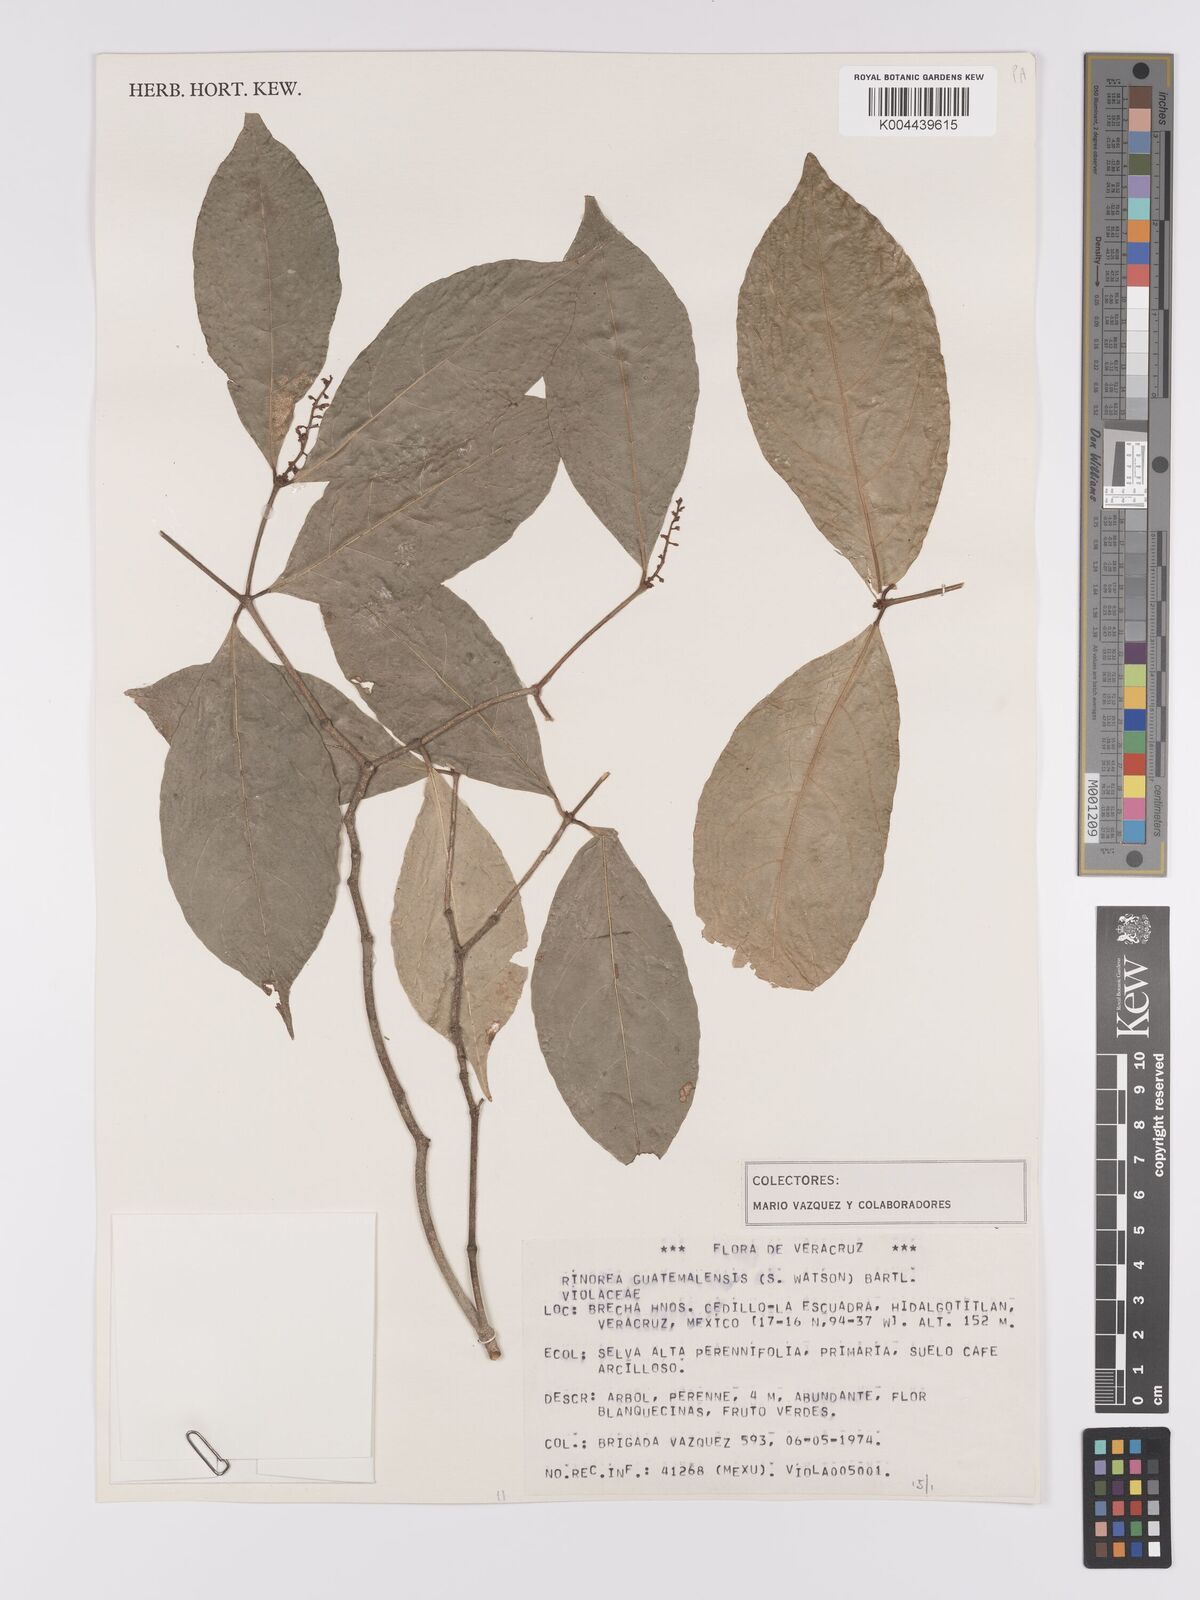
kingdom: Plantae
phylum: Tracheophyta
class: Magnoliopsida
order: Malpighiales
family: Violaceae
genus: Rinorea
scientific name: Rinorea guatemalensis
